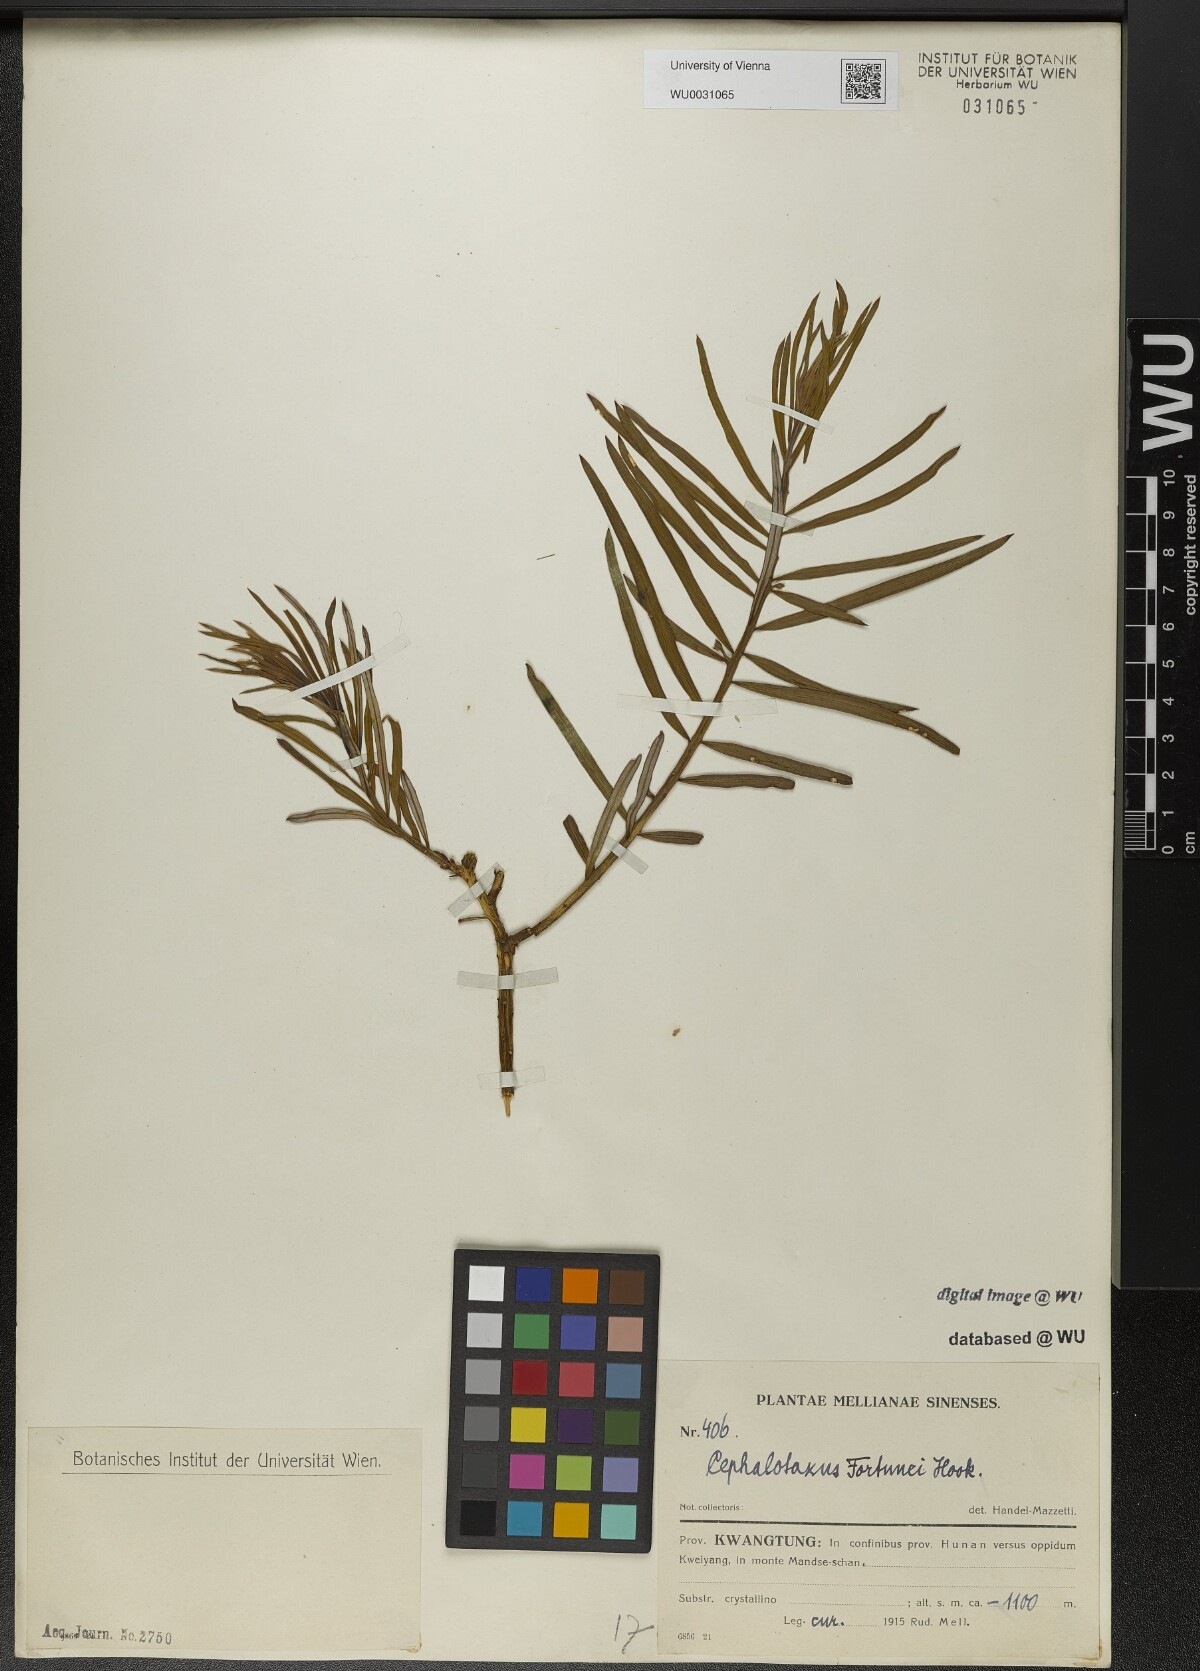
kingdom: Plantae
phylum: Tracheophyta
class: Pinopsida
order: Pinales
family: Cephalotaxaceae
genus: Cephalotaxus
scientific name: Cephalotaxus fortunei
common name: Chinese plum-yew
